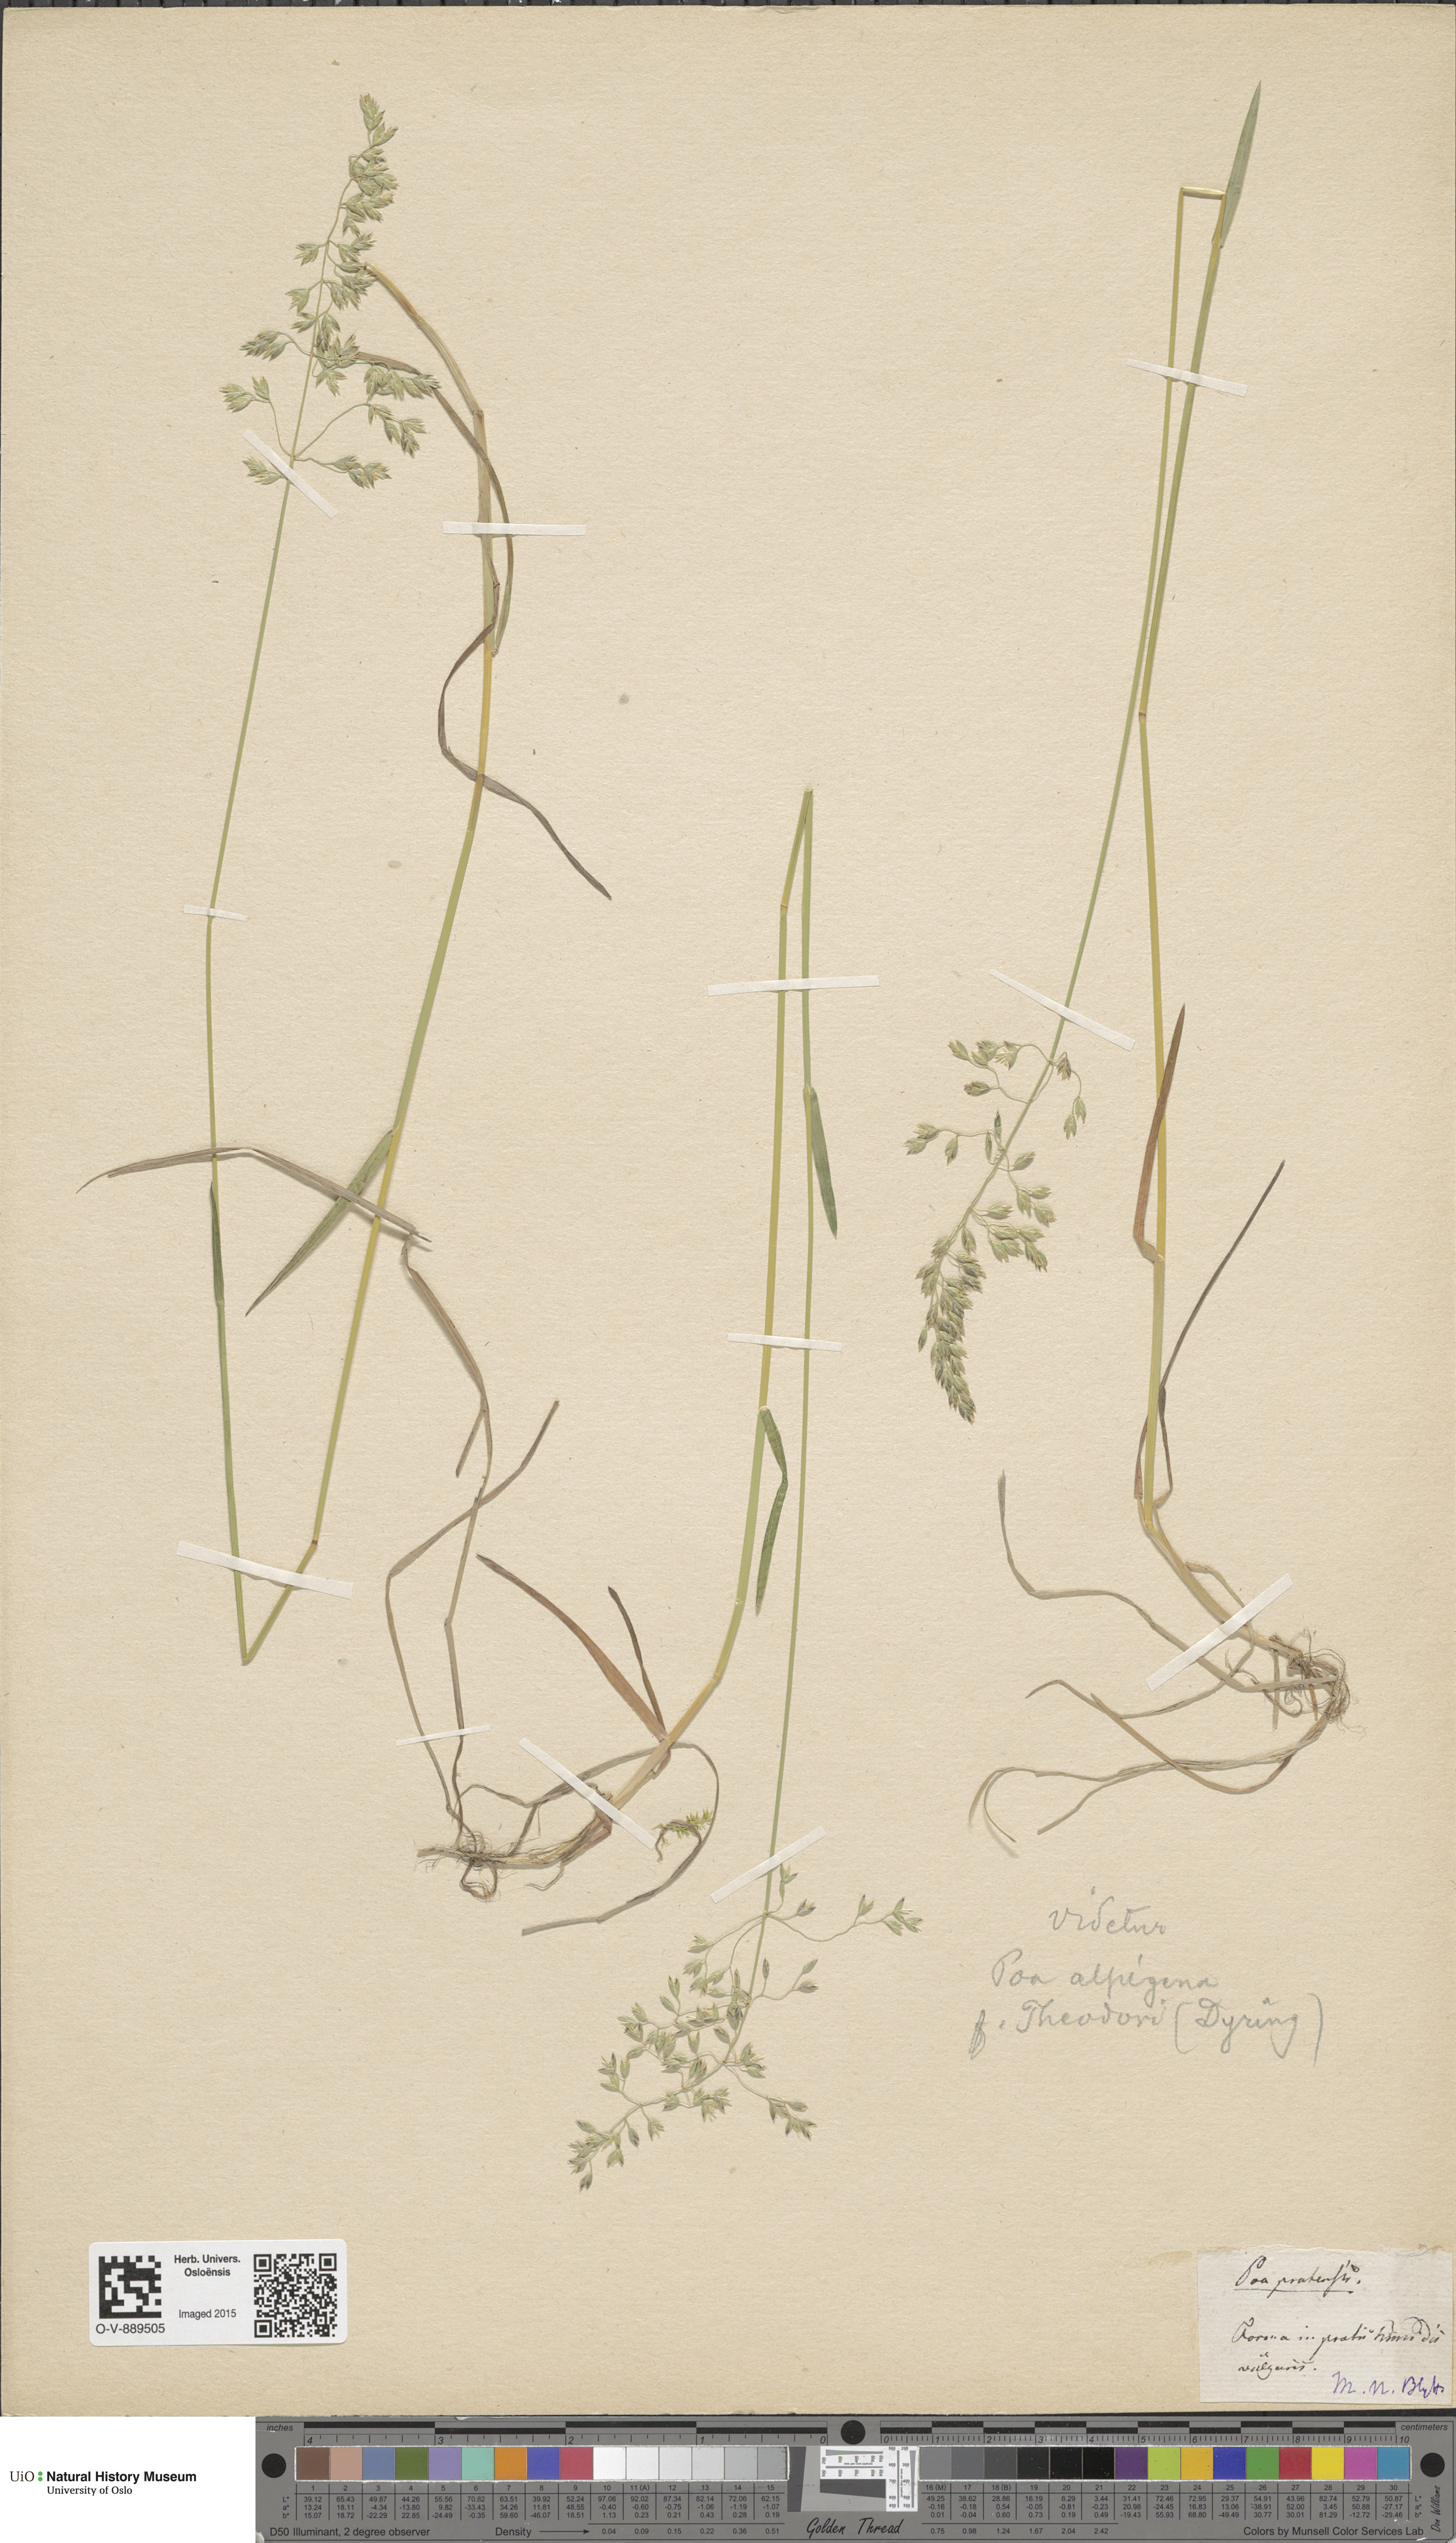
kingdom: Plantae
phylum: Tracheophyta
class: Liliopsida
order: Poales
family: Poaceae
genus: Poa
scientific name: Poa alpigena
